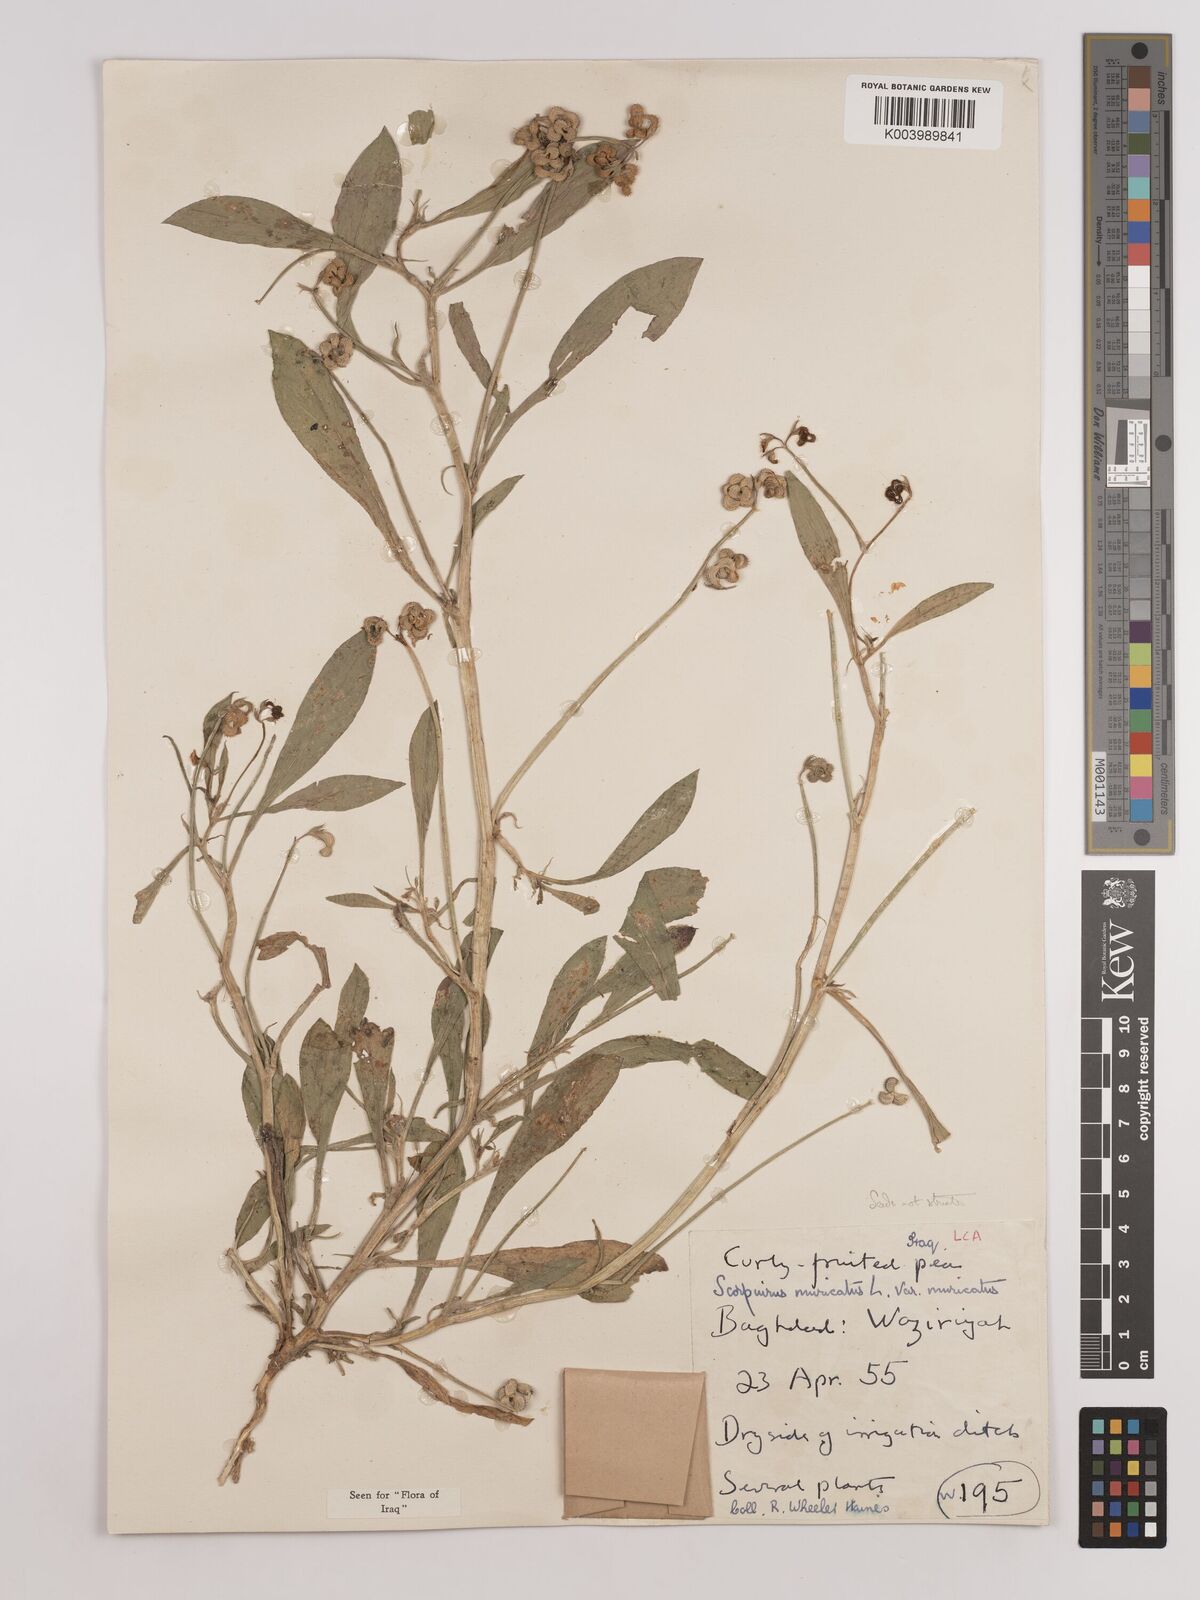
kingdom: Plantae
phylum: Tracheophyta
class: Magnoliopsida
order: Fabales
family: Fabaceae
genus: Scorpiurus
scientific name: Scorpiurus muricatus
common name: Caterpillar-plant
